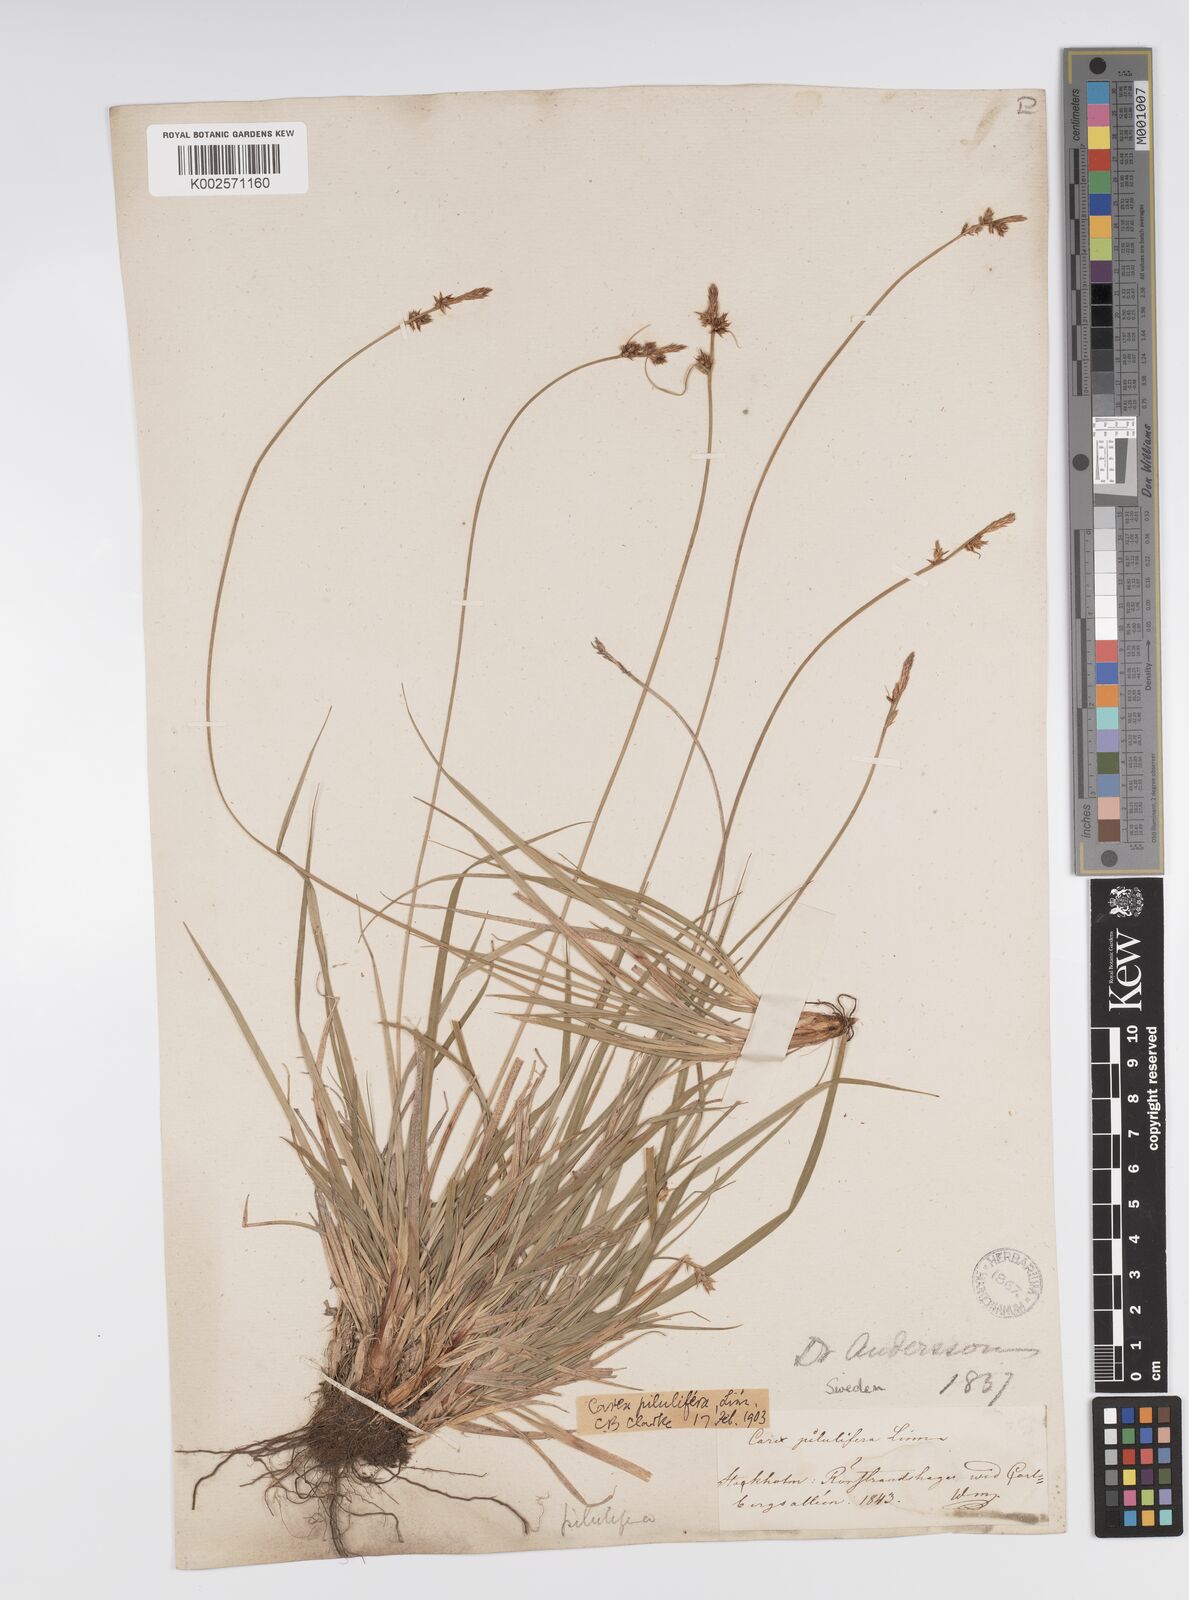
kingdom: Plantae
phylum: Tracheophyta
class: Liliopsida
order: Poales
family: Cyperaceae
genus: Carex
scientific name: Carex pilulifera
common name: Pill sedge
